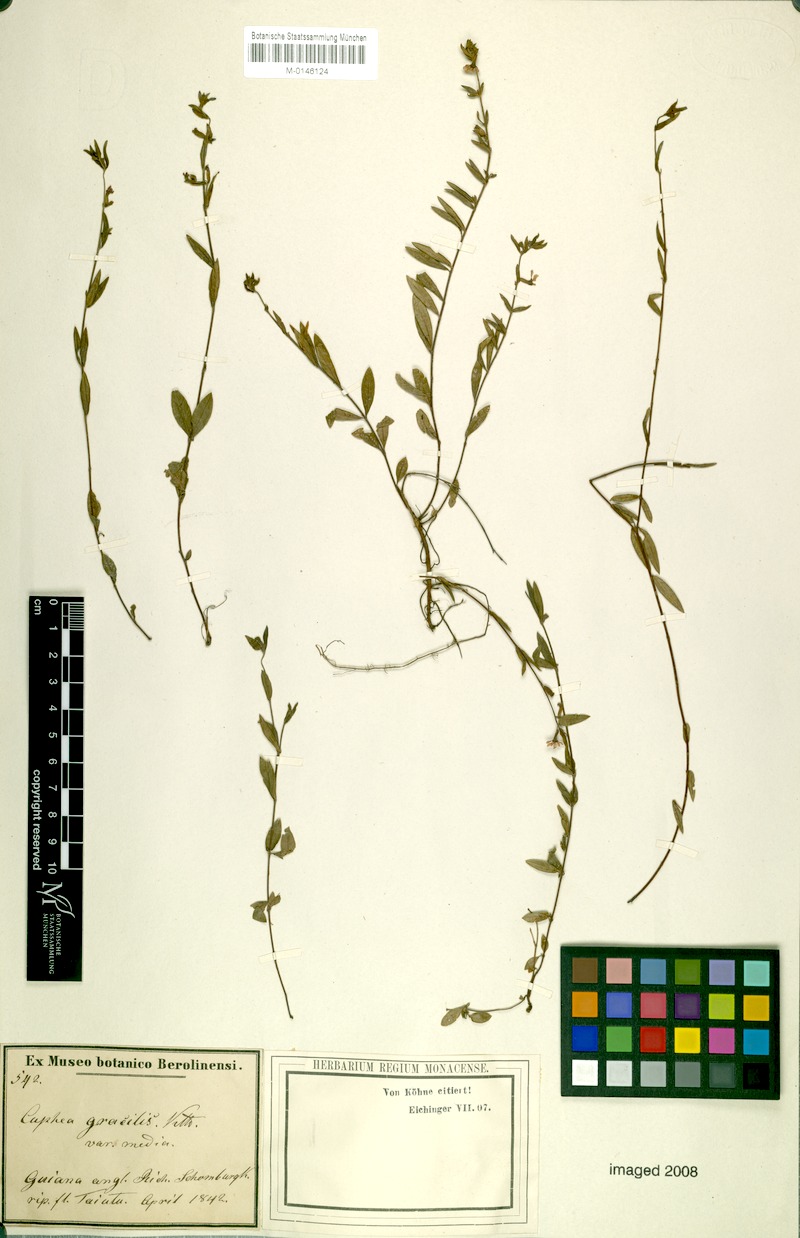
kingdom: Plantae
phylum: Tracheophyta
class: Magnoliopsida
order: Myrtales
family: Lythraceae
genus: Cuphea
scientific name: Cuphea gracilis
